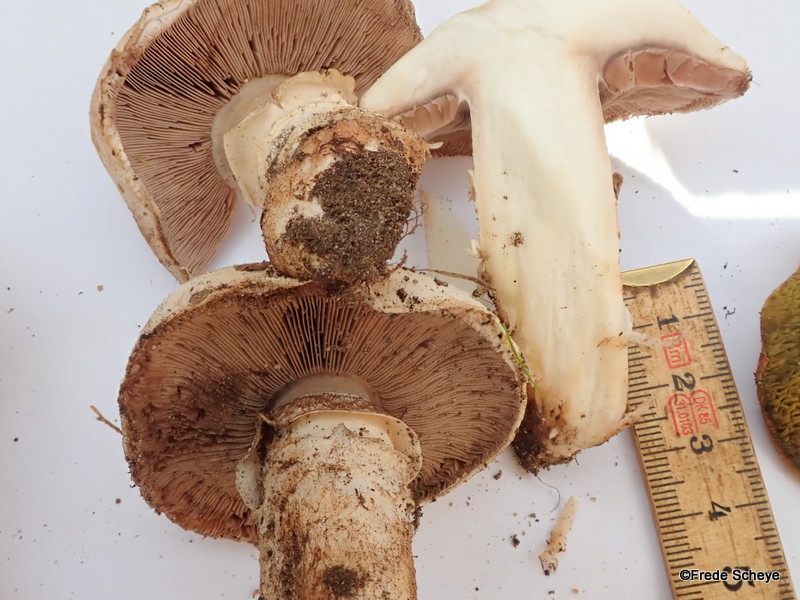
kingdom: Fungi
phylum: Basidiomycota
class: Agaricomycetes
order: Agaricales
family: Agaricaceae
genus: Agaricus
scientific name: Agaricus bitorquis
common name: vej-champignon
